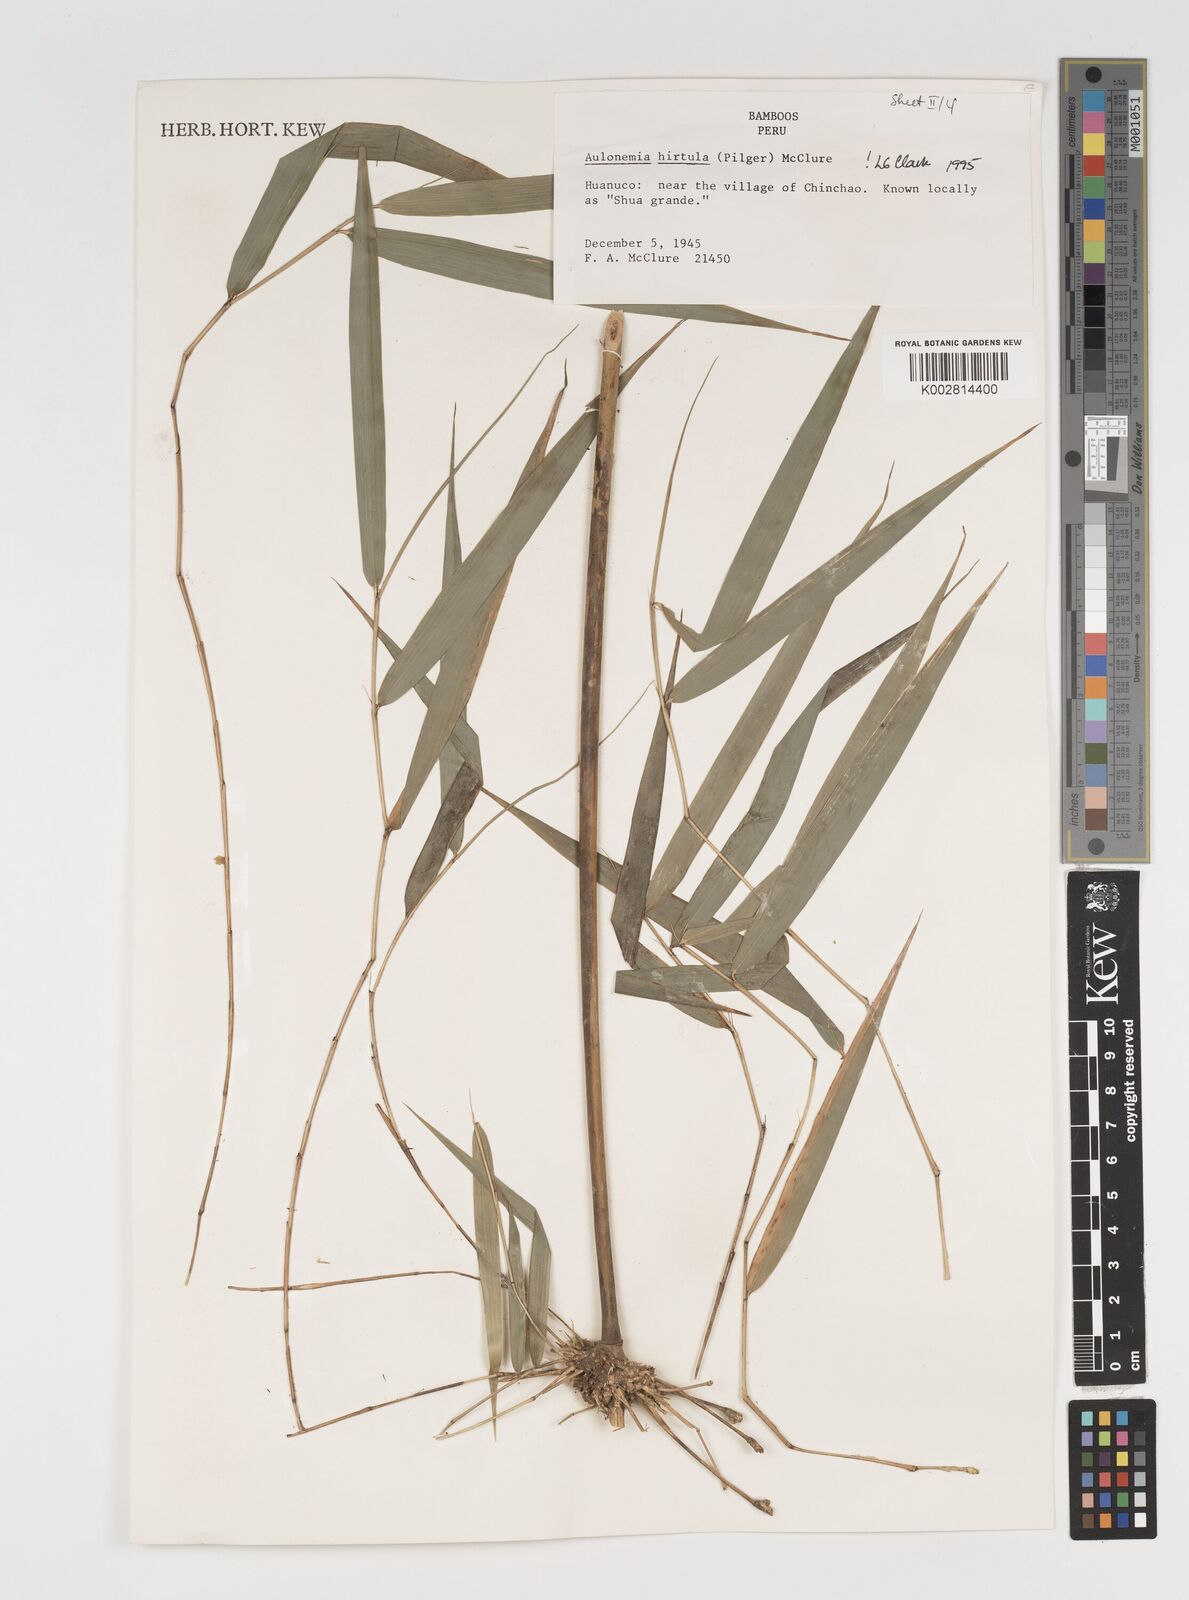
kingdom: Plantae
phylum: Tracheophyta
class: Liliopsida
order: Poales
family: Poaceae
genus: Aulonemia
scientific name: Aulonemia hirtula
